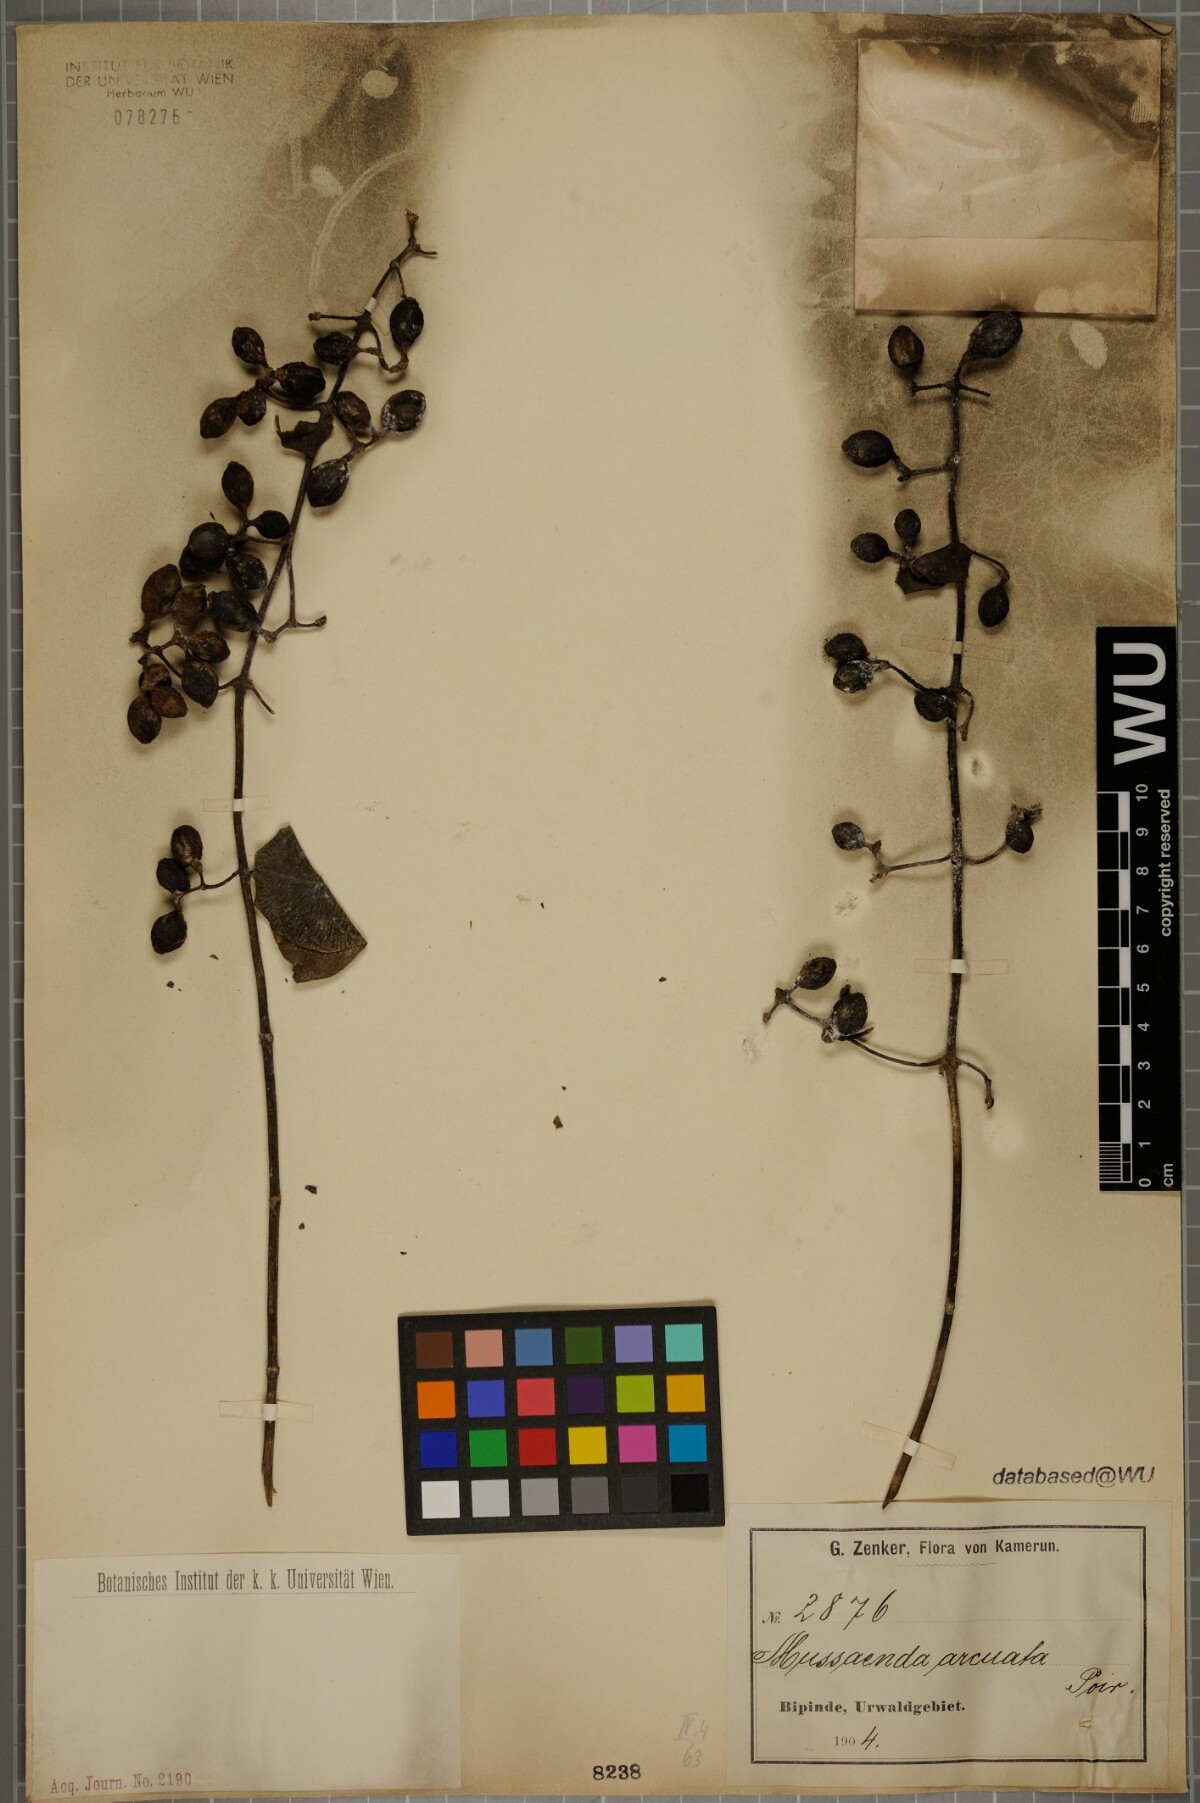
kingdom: Plantae
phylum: Tracheophyta
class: Magnoliopsida
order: Gentianales
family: Rubiaceae
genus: Mussaenda
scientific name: Mussaenda arcuata
